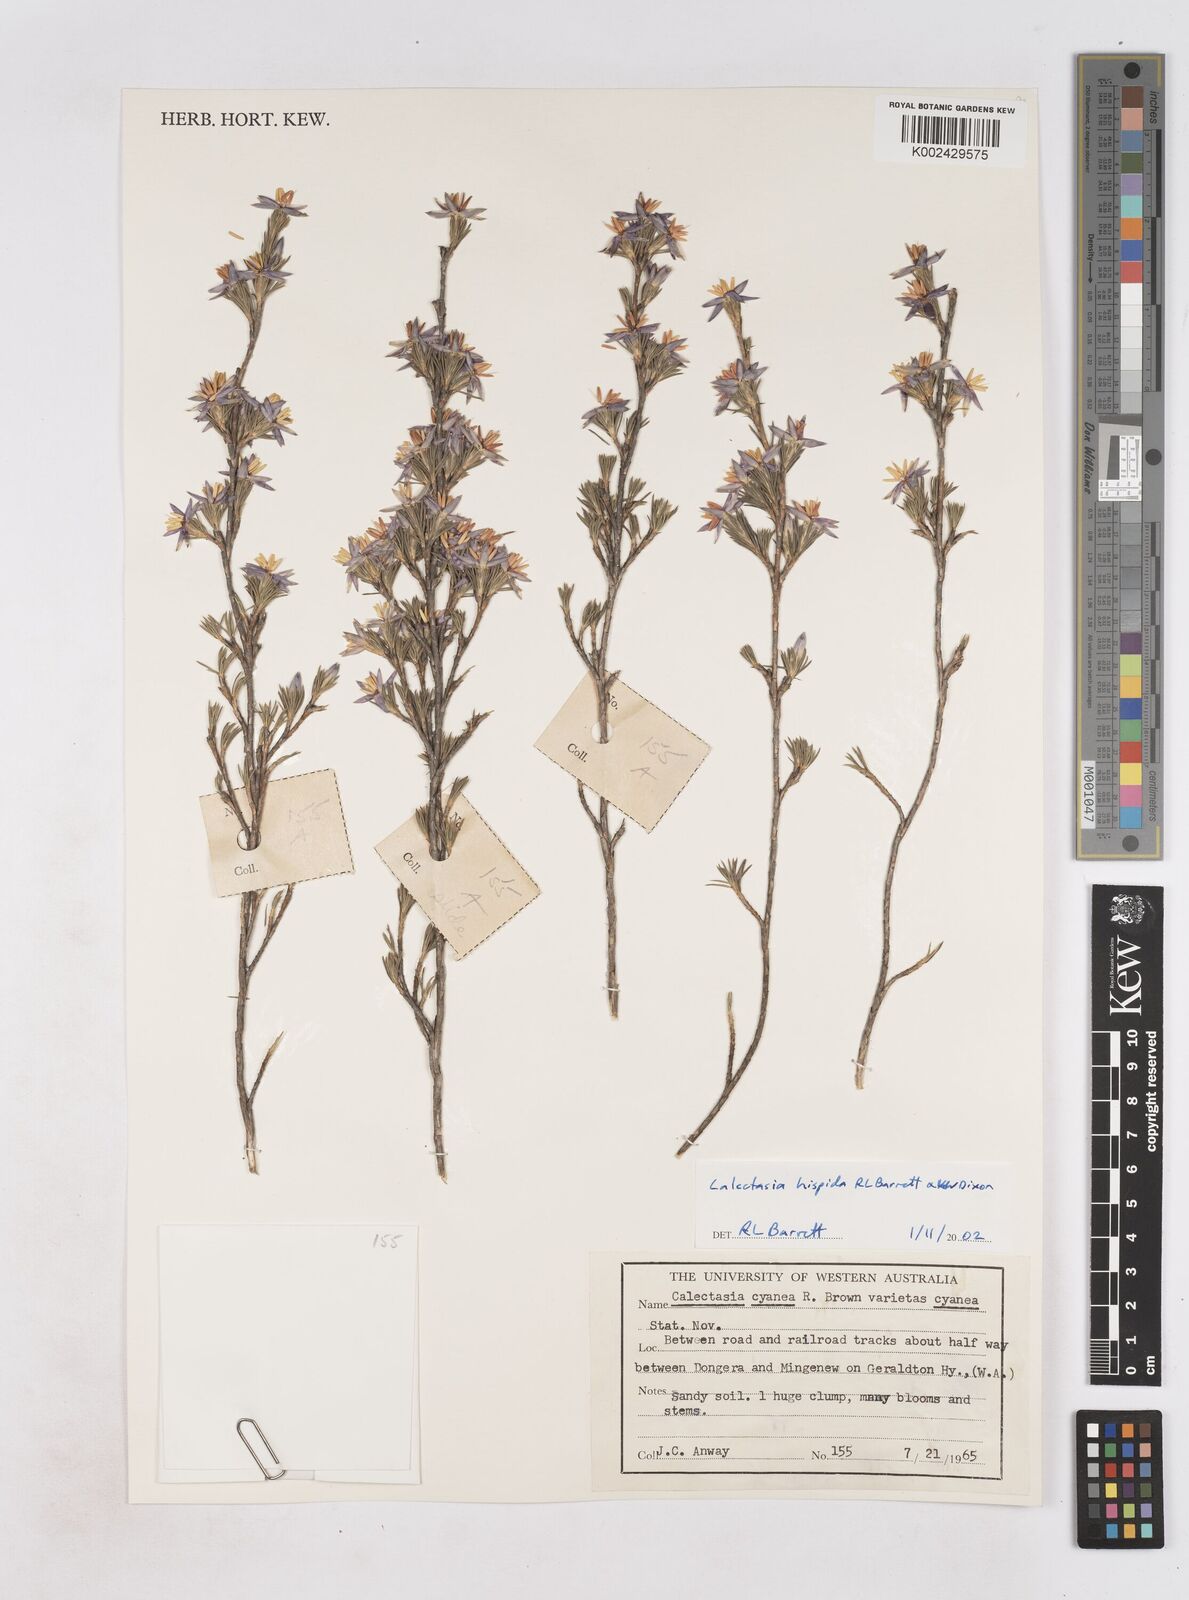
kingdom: Plantae
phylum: Tracheophyta
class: Liliopsida
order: Arecales
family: Dasypogonaceae
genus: Calectasia
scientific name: Calectasia hispida
